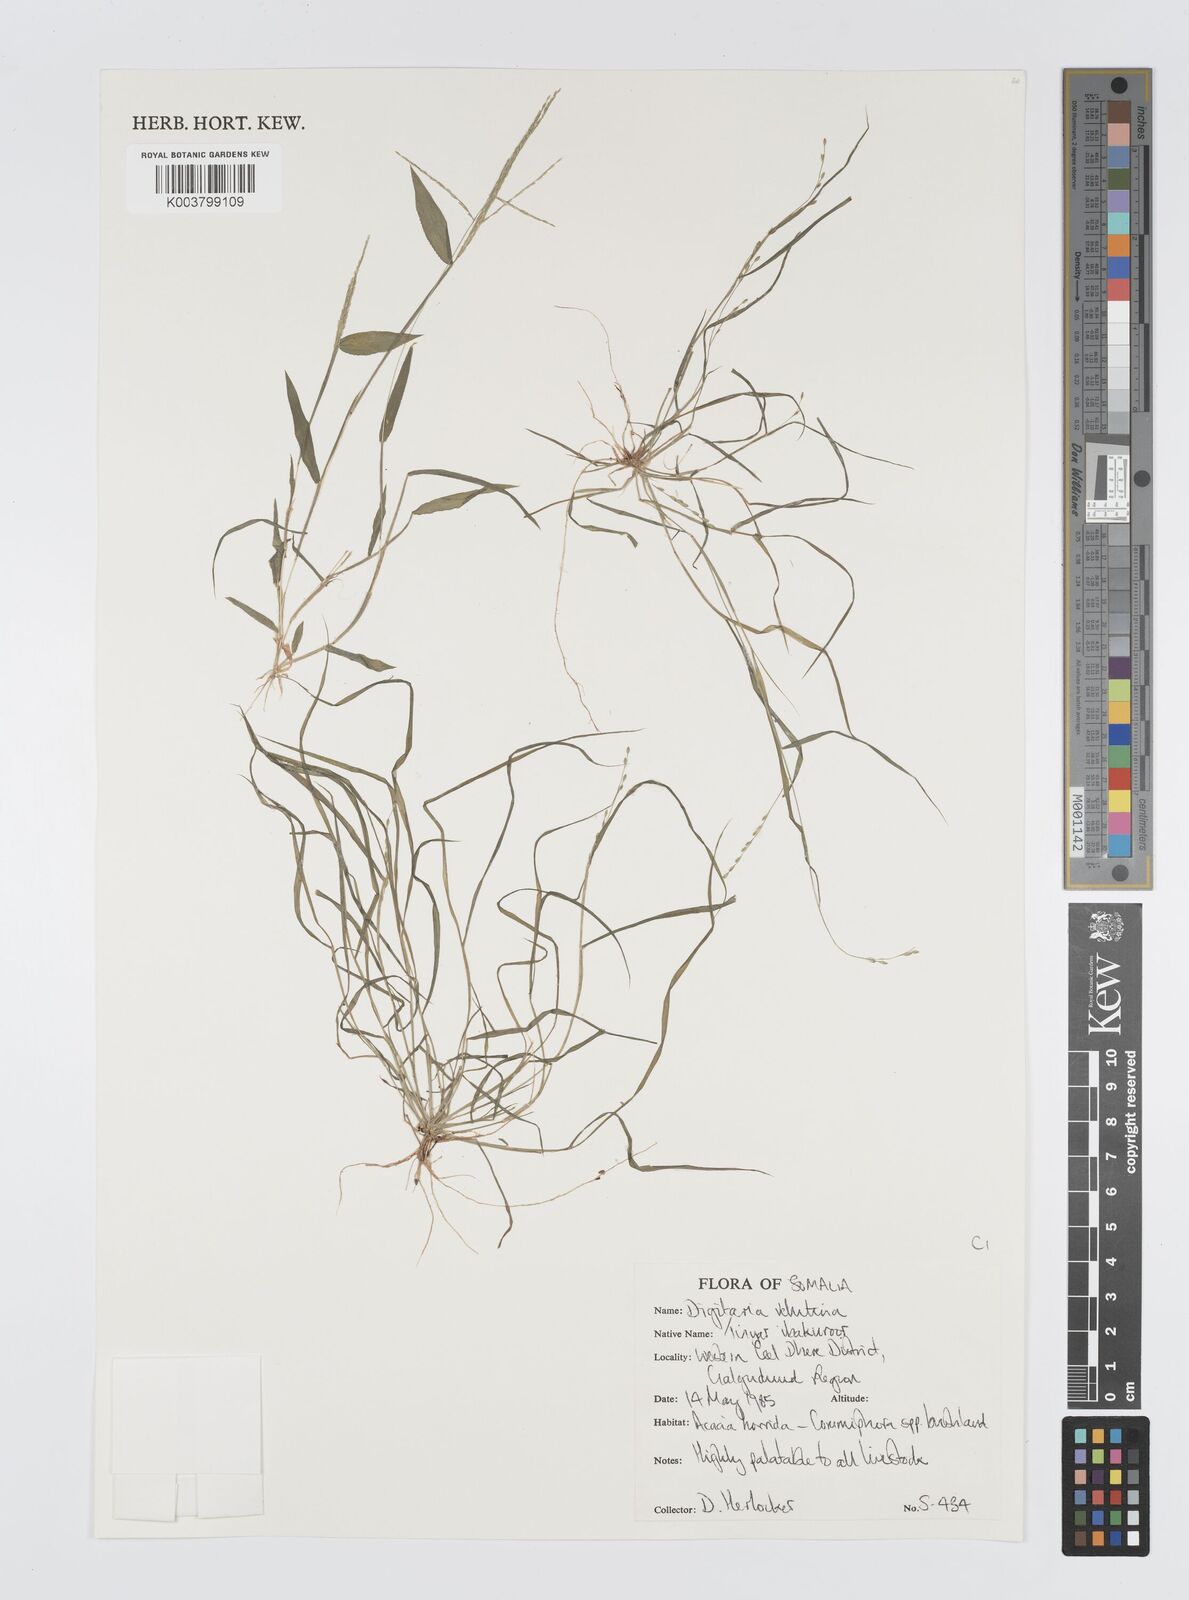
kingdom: Plantae
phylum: Tracheophyta
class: Liliopsida
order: Poales
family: Poaceae
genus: Digitaria
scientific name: Digitaria velutina
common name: Long-plume finger grass
